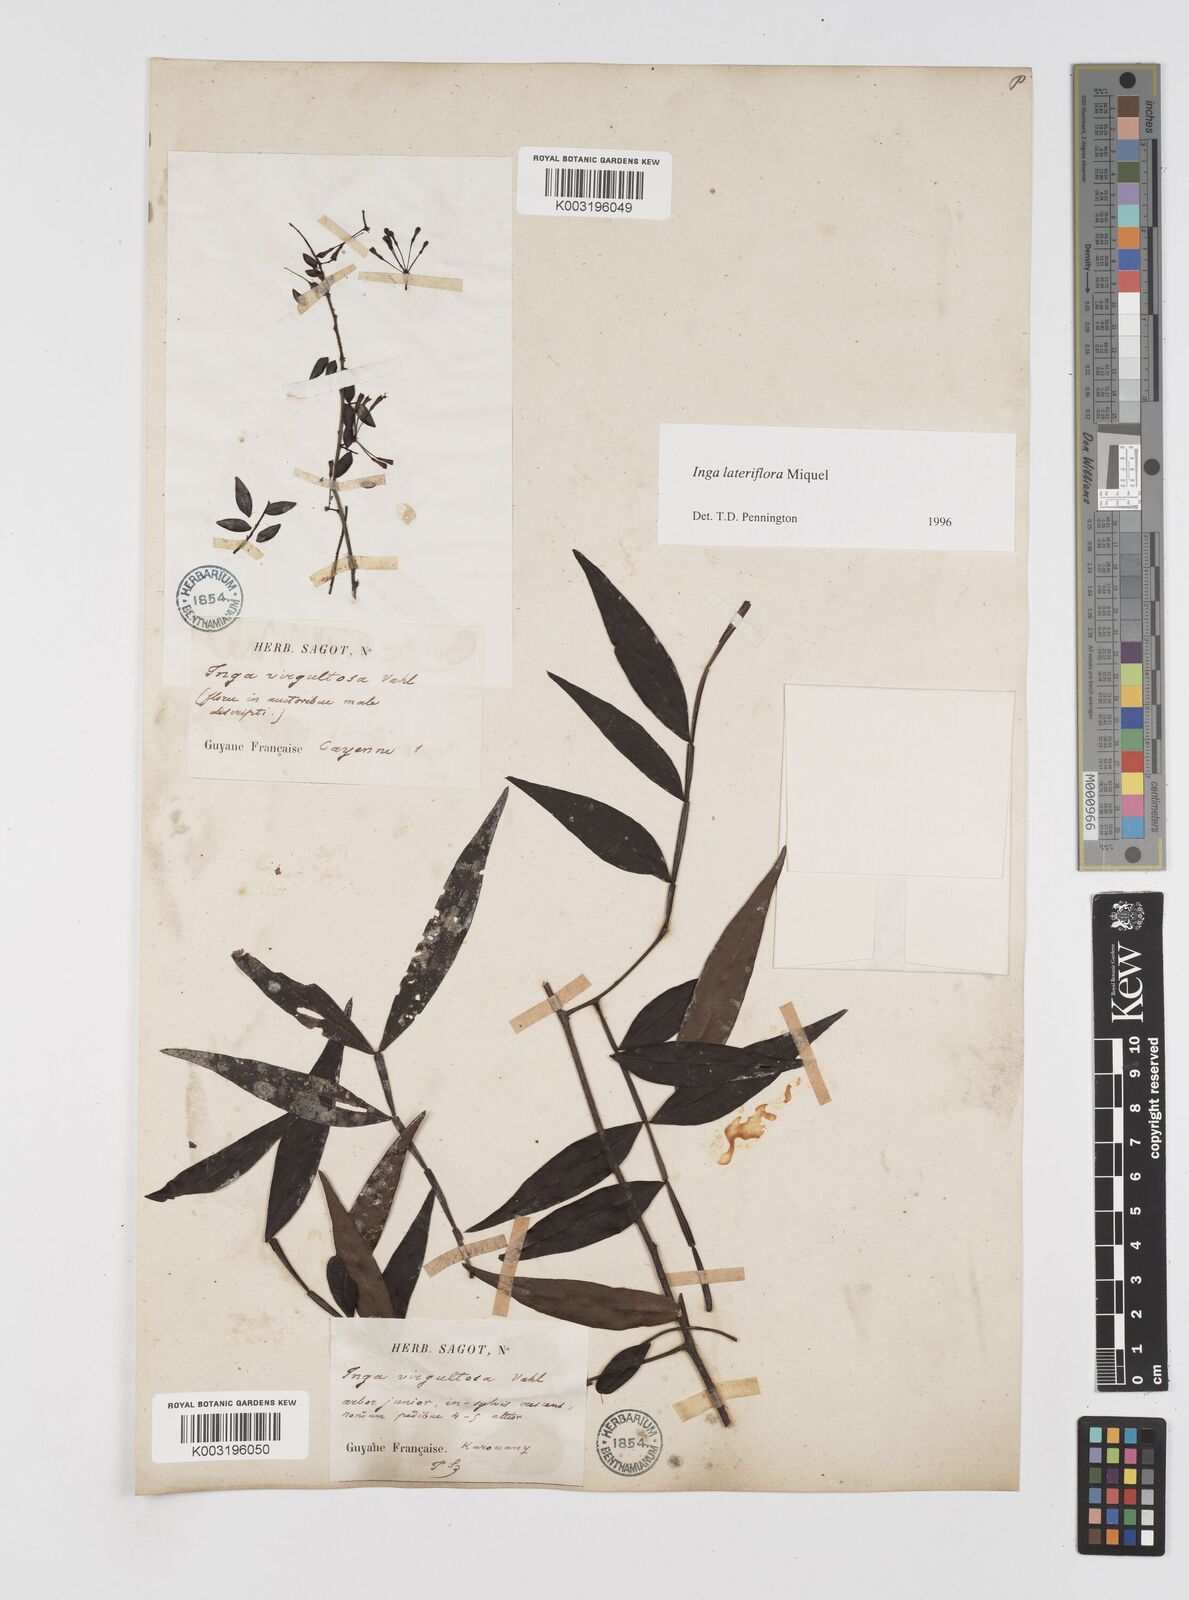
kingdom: Plantae
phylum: Tracheophyta
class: Magnoliopsida
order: Fabales
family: Fabaceae
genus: Inga
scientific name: Inga lateriflora
